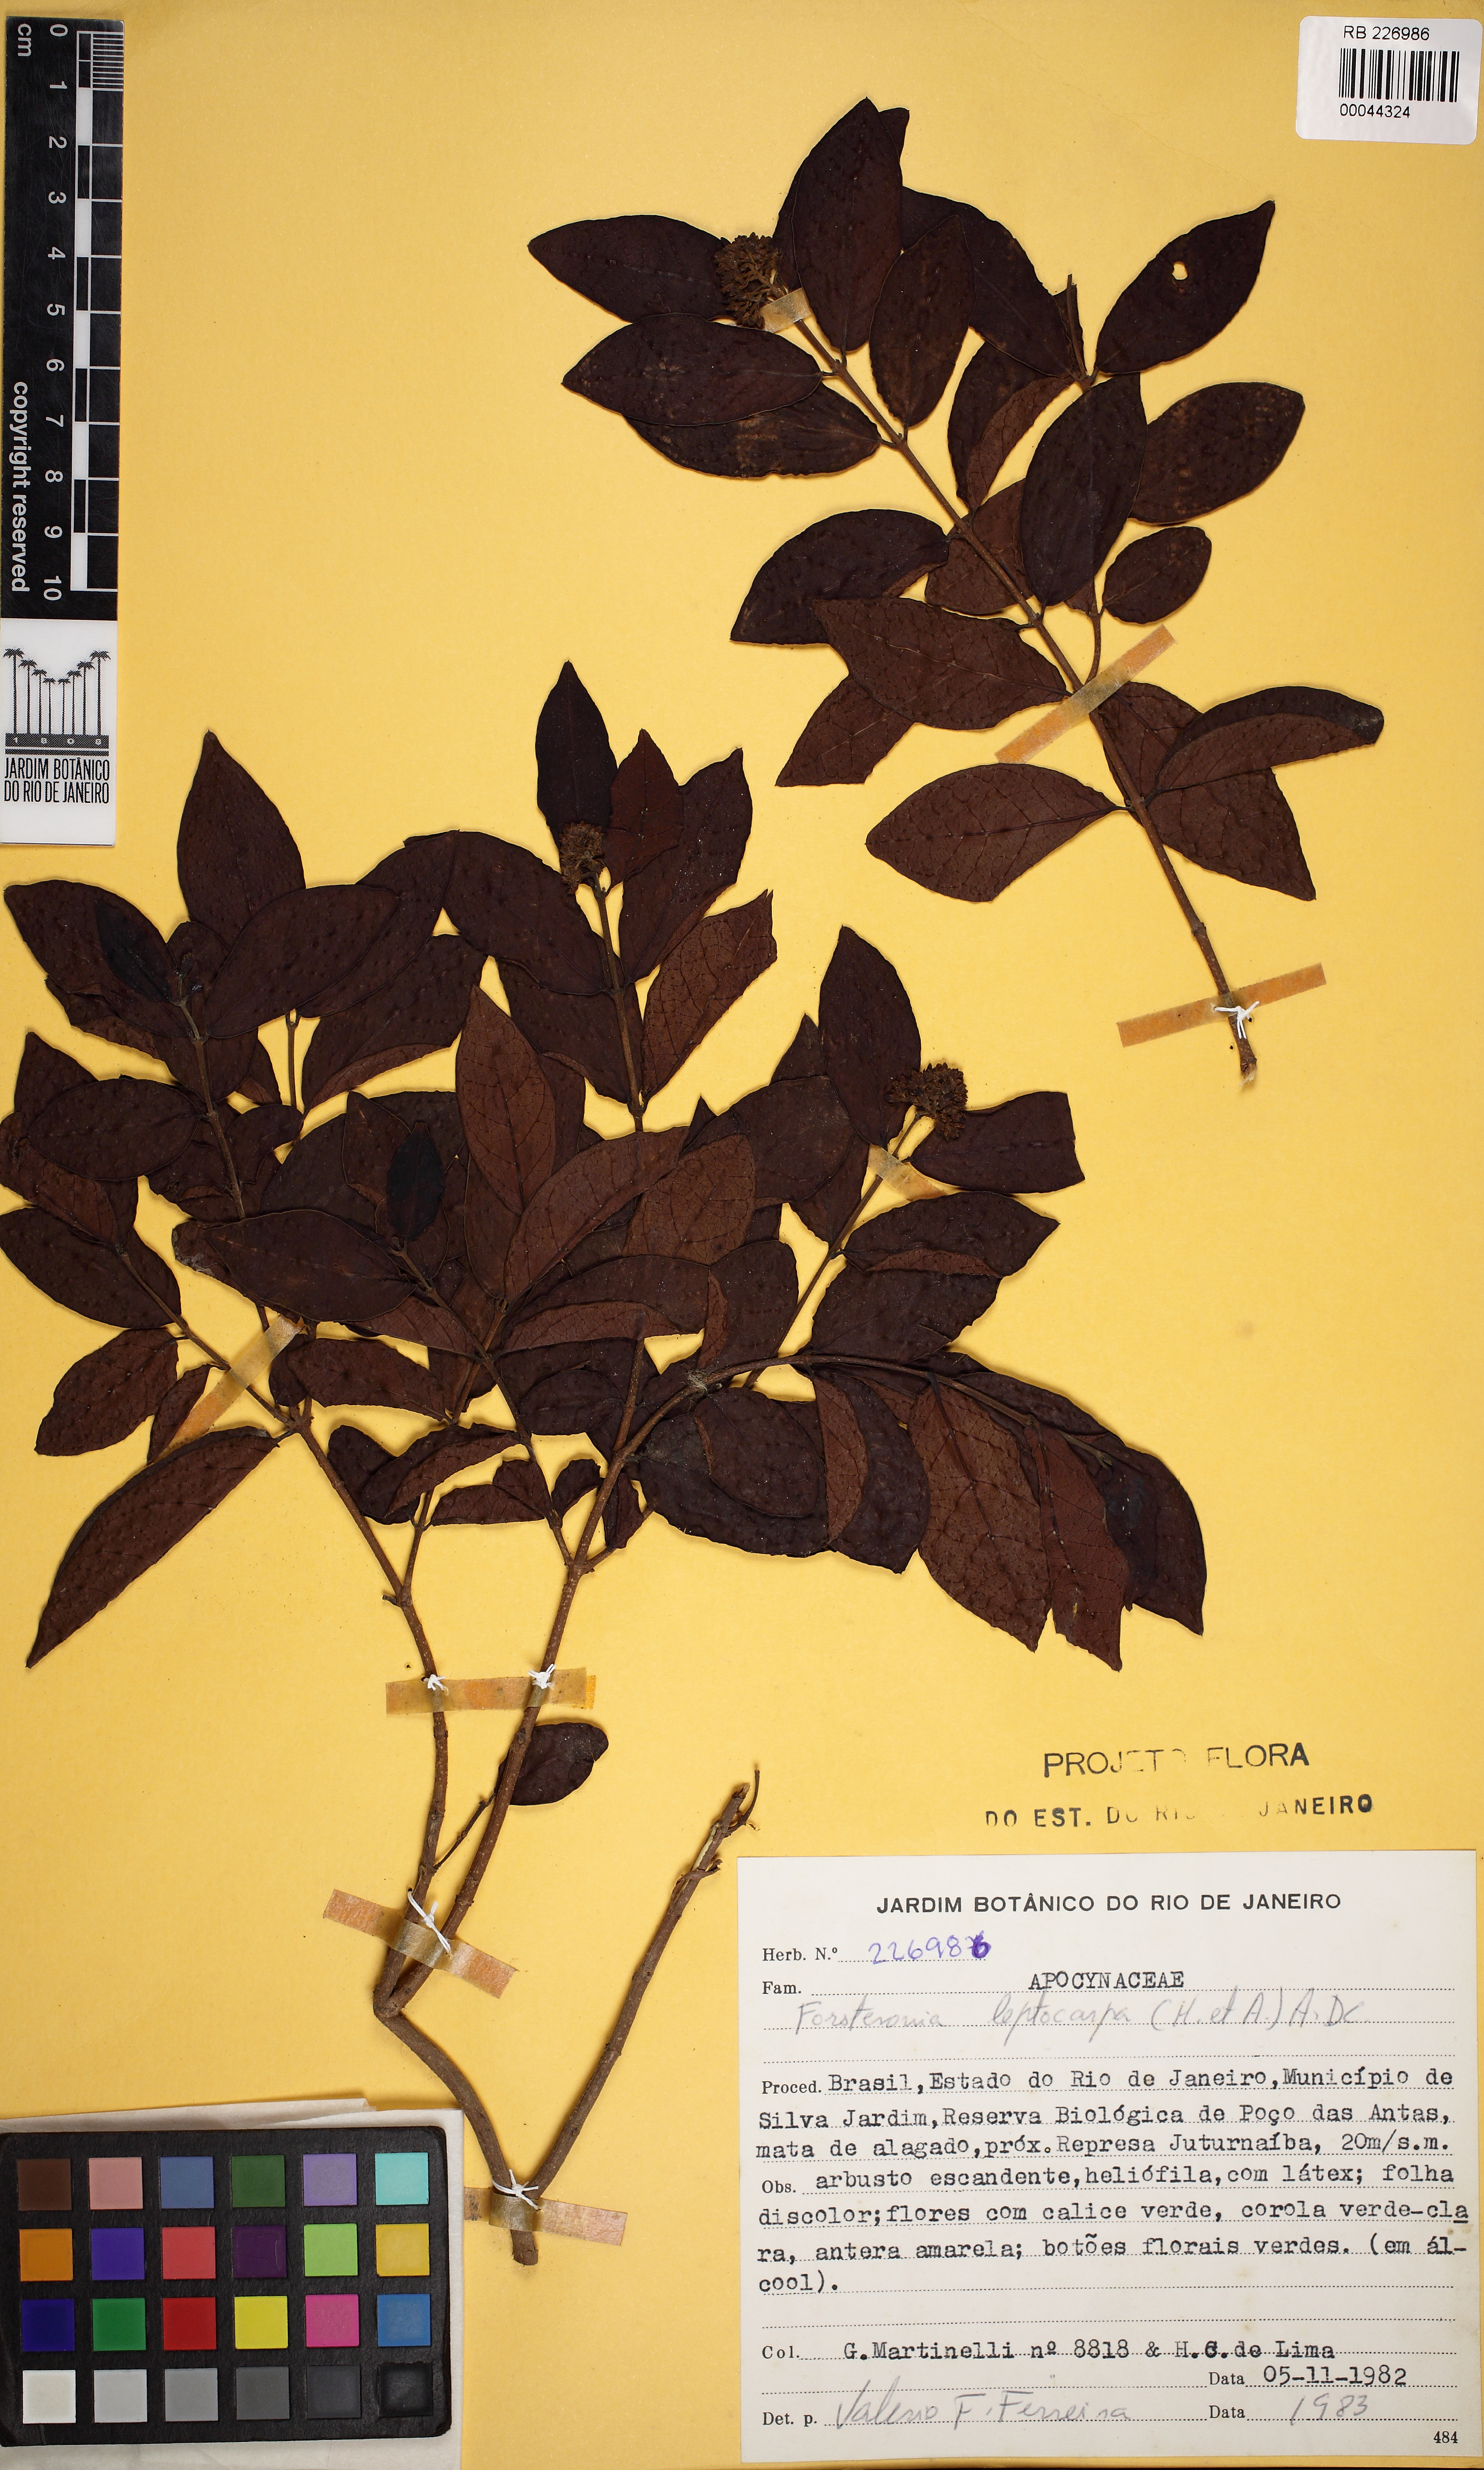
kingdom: Plantae
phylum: Tracheophyta
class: Magnoliopsida
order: Gentianales
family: Apocynaceae
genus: Forsteronia
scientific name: Forsteronia leptocarpa
